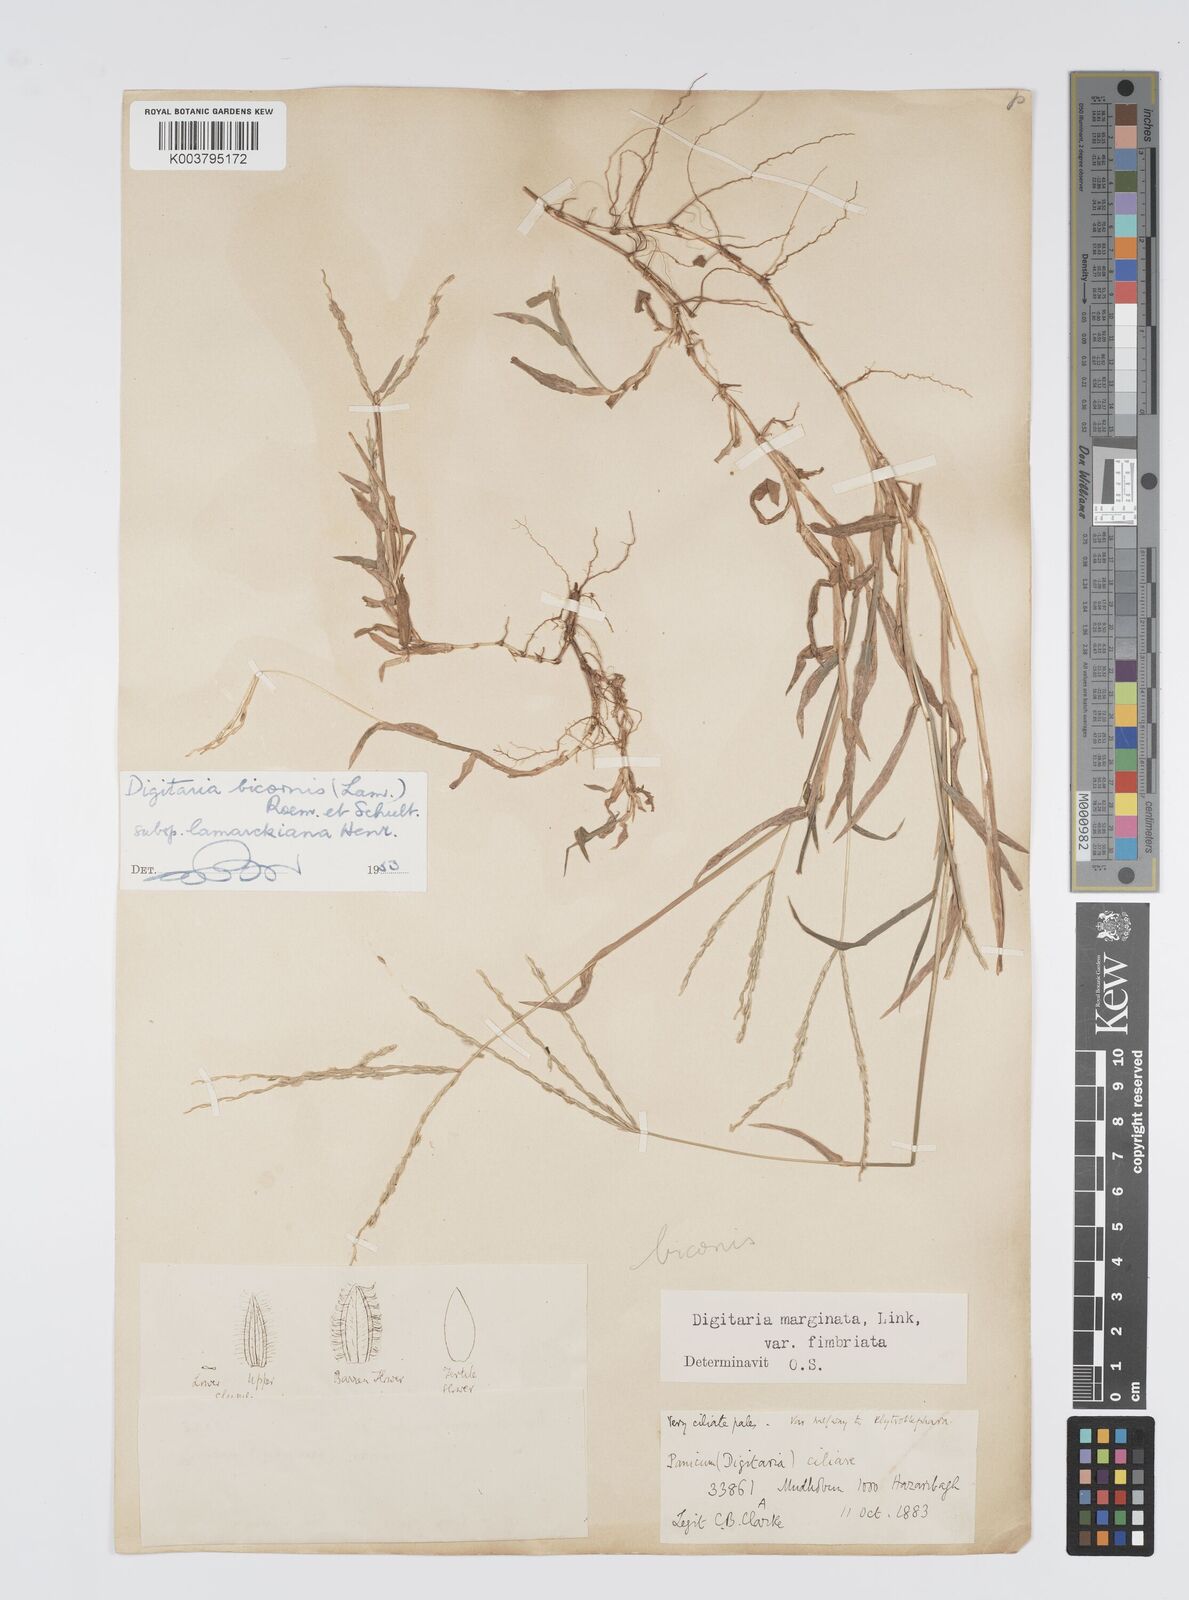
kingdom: Plantae
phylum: Tracheophyta
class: Liliopsida
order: Poales
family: Poaceae
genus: Digitaria
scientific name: Digitaria ciliaris
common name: Tropical finger-grass
